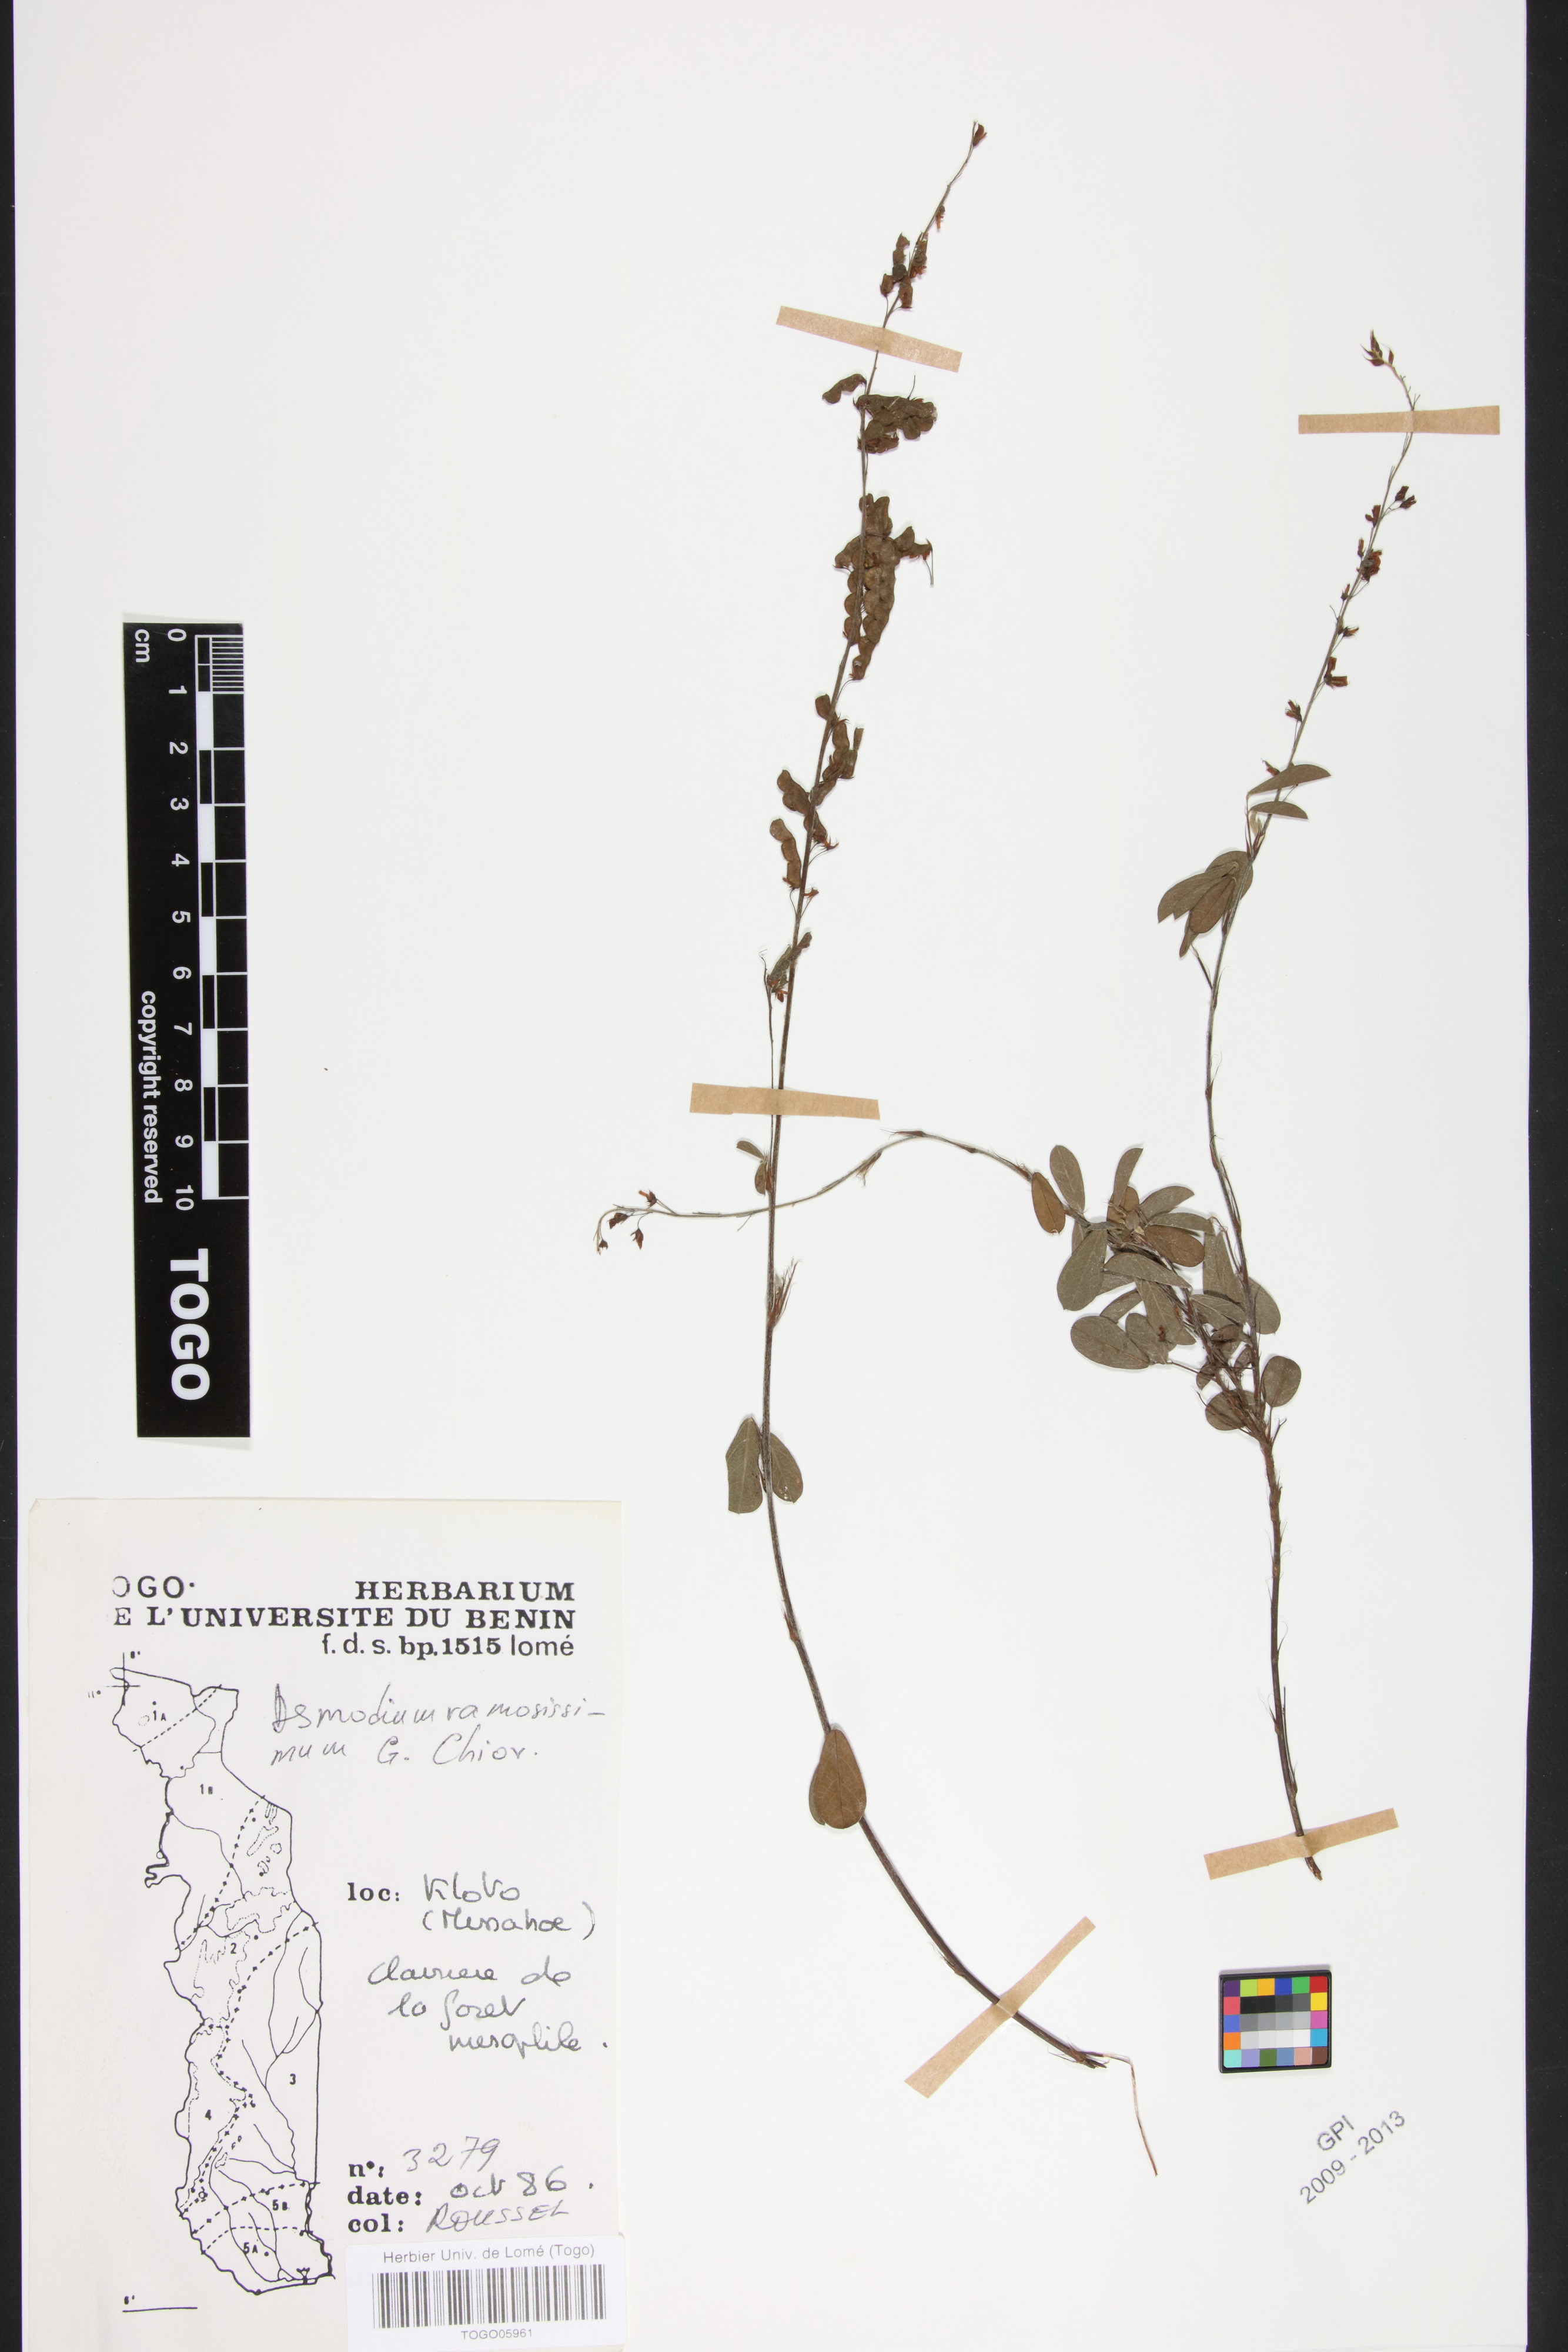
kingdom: Plantae
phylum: Tracheophyta
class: Magnoliopsida
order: Fabales
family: Fabaceae
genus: Grona
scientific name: Grona ramosissima
